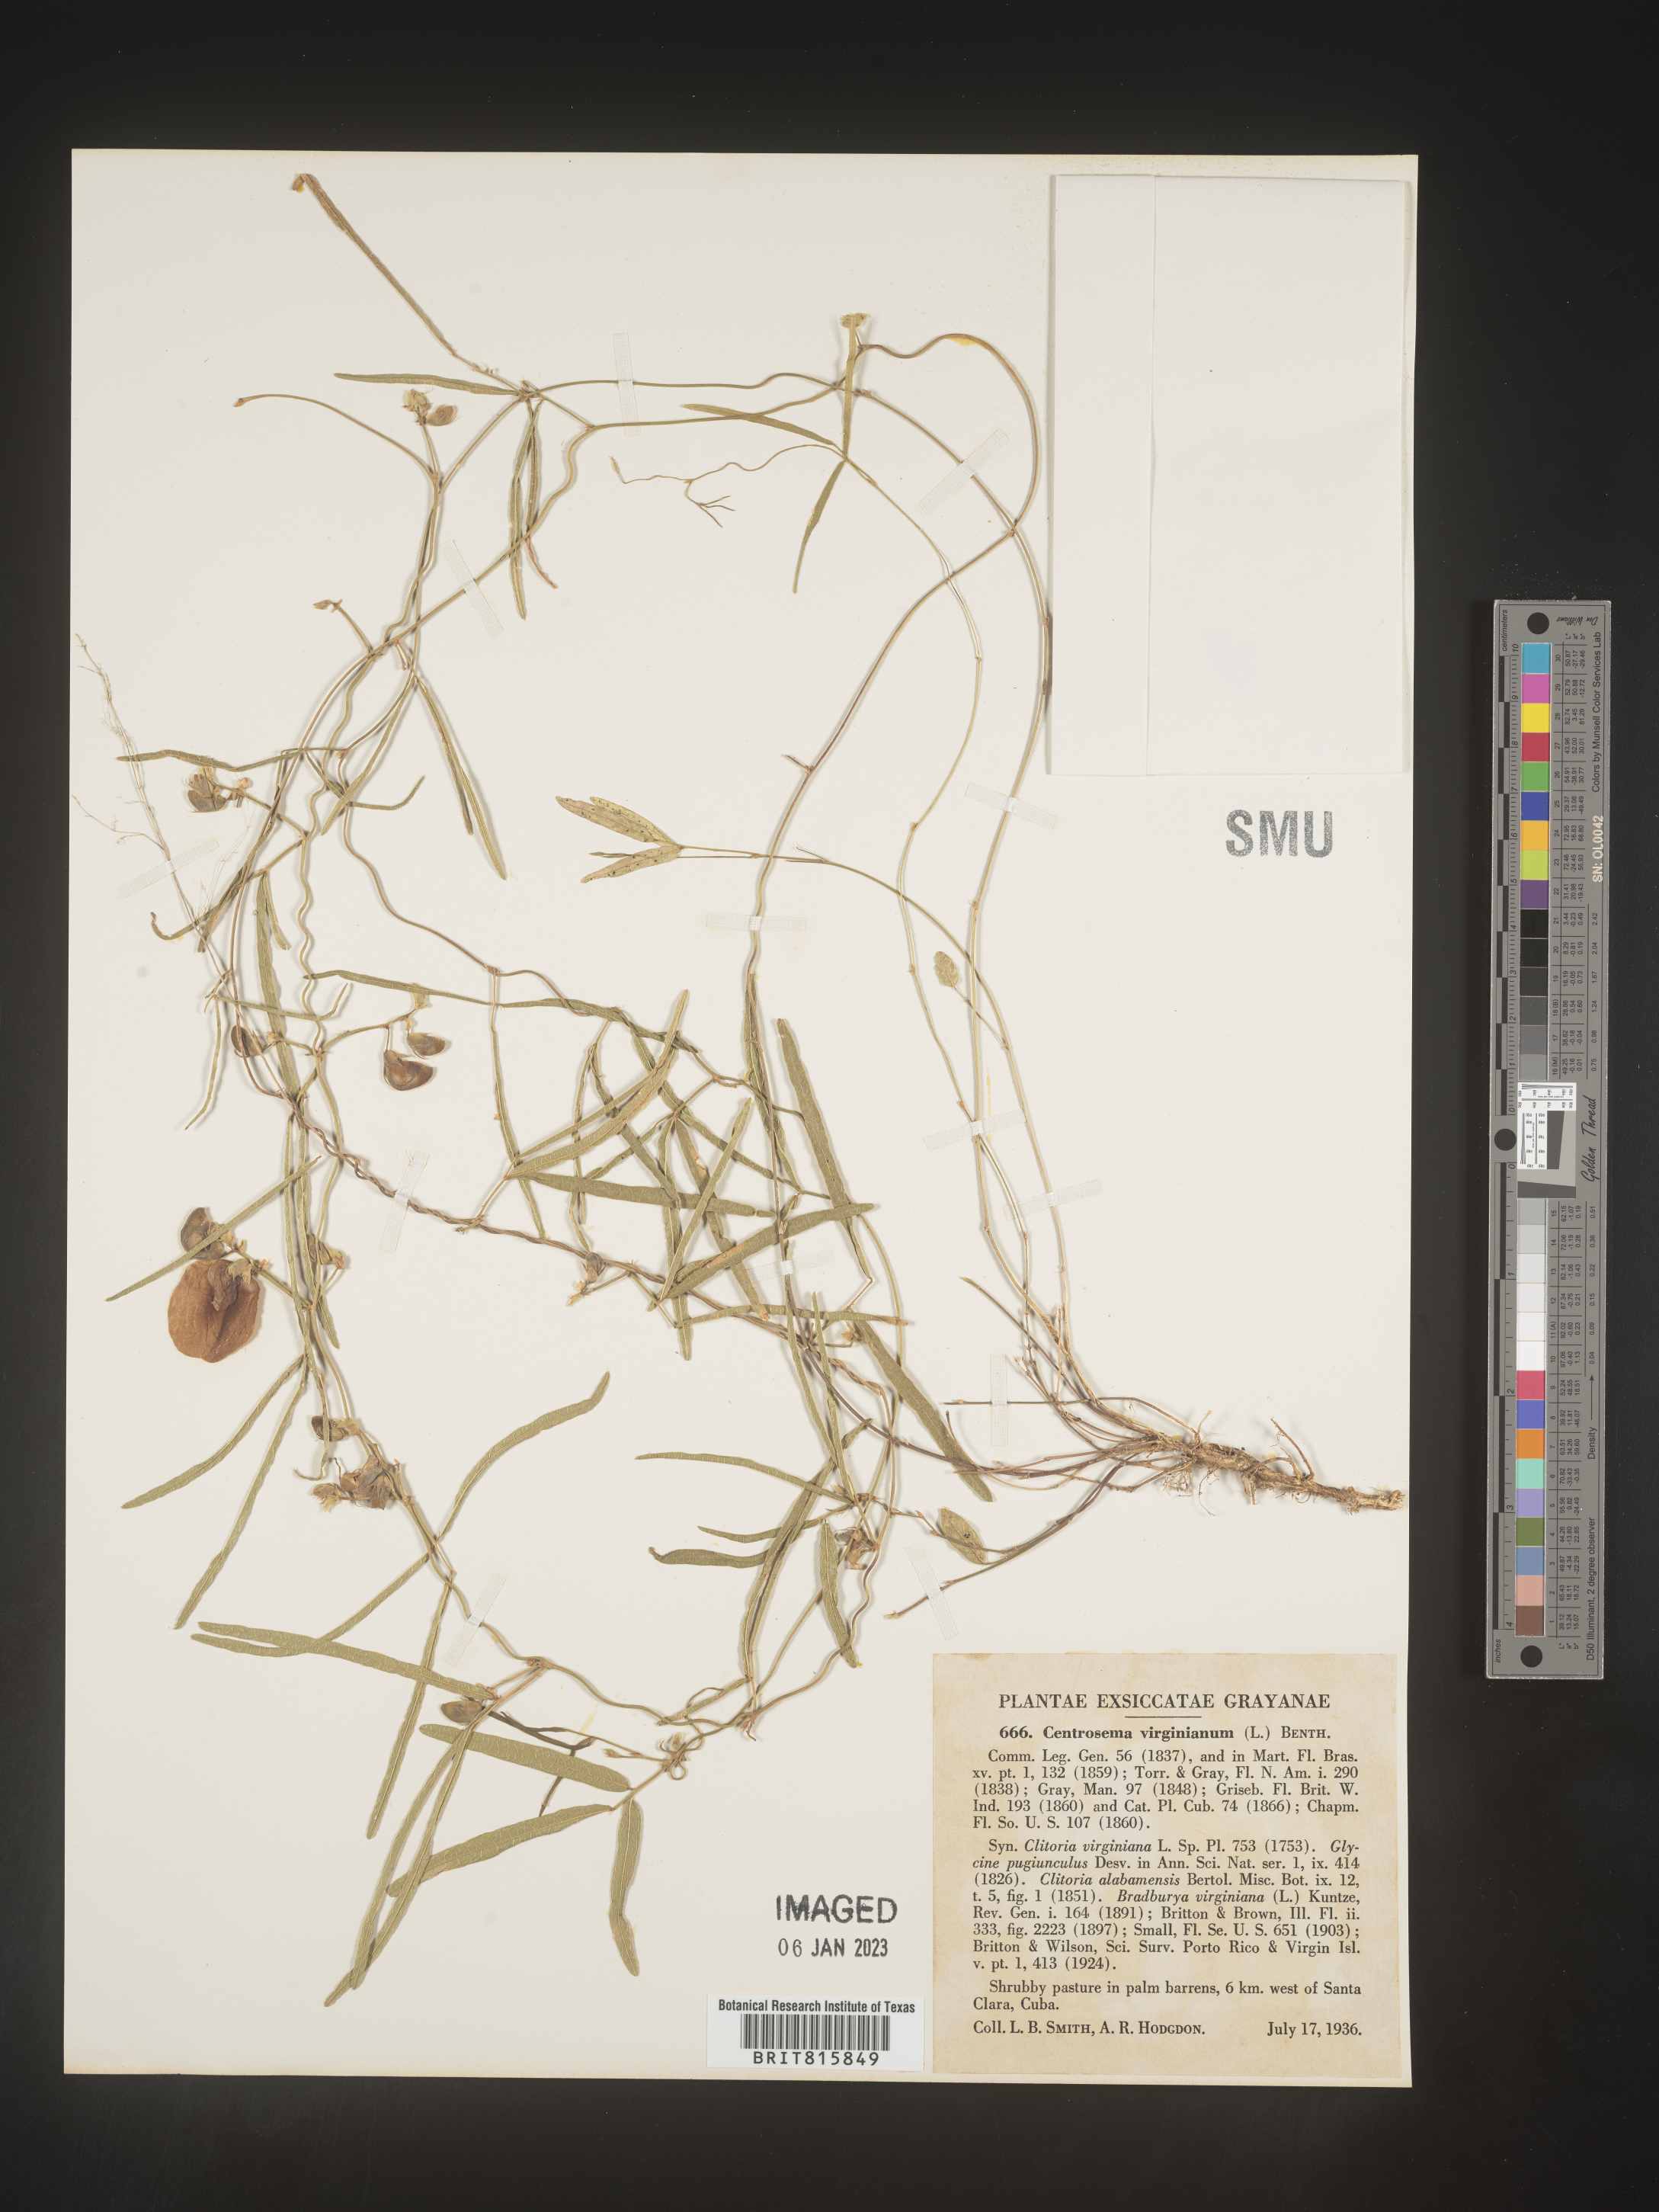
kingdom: Plantae
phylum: Tracheophyta
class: Magnoliopsida
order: Fabales
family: Fabaceae
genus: Centrosema
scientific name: Centrosema
